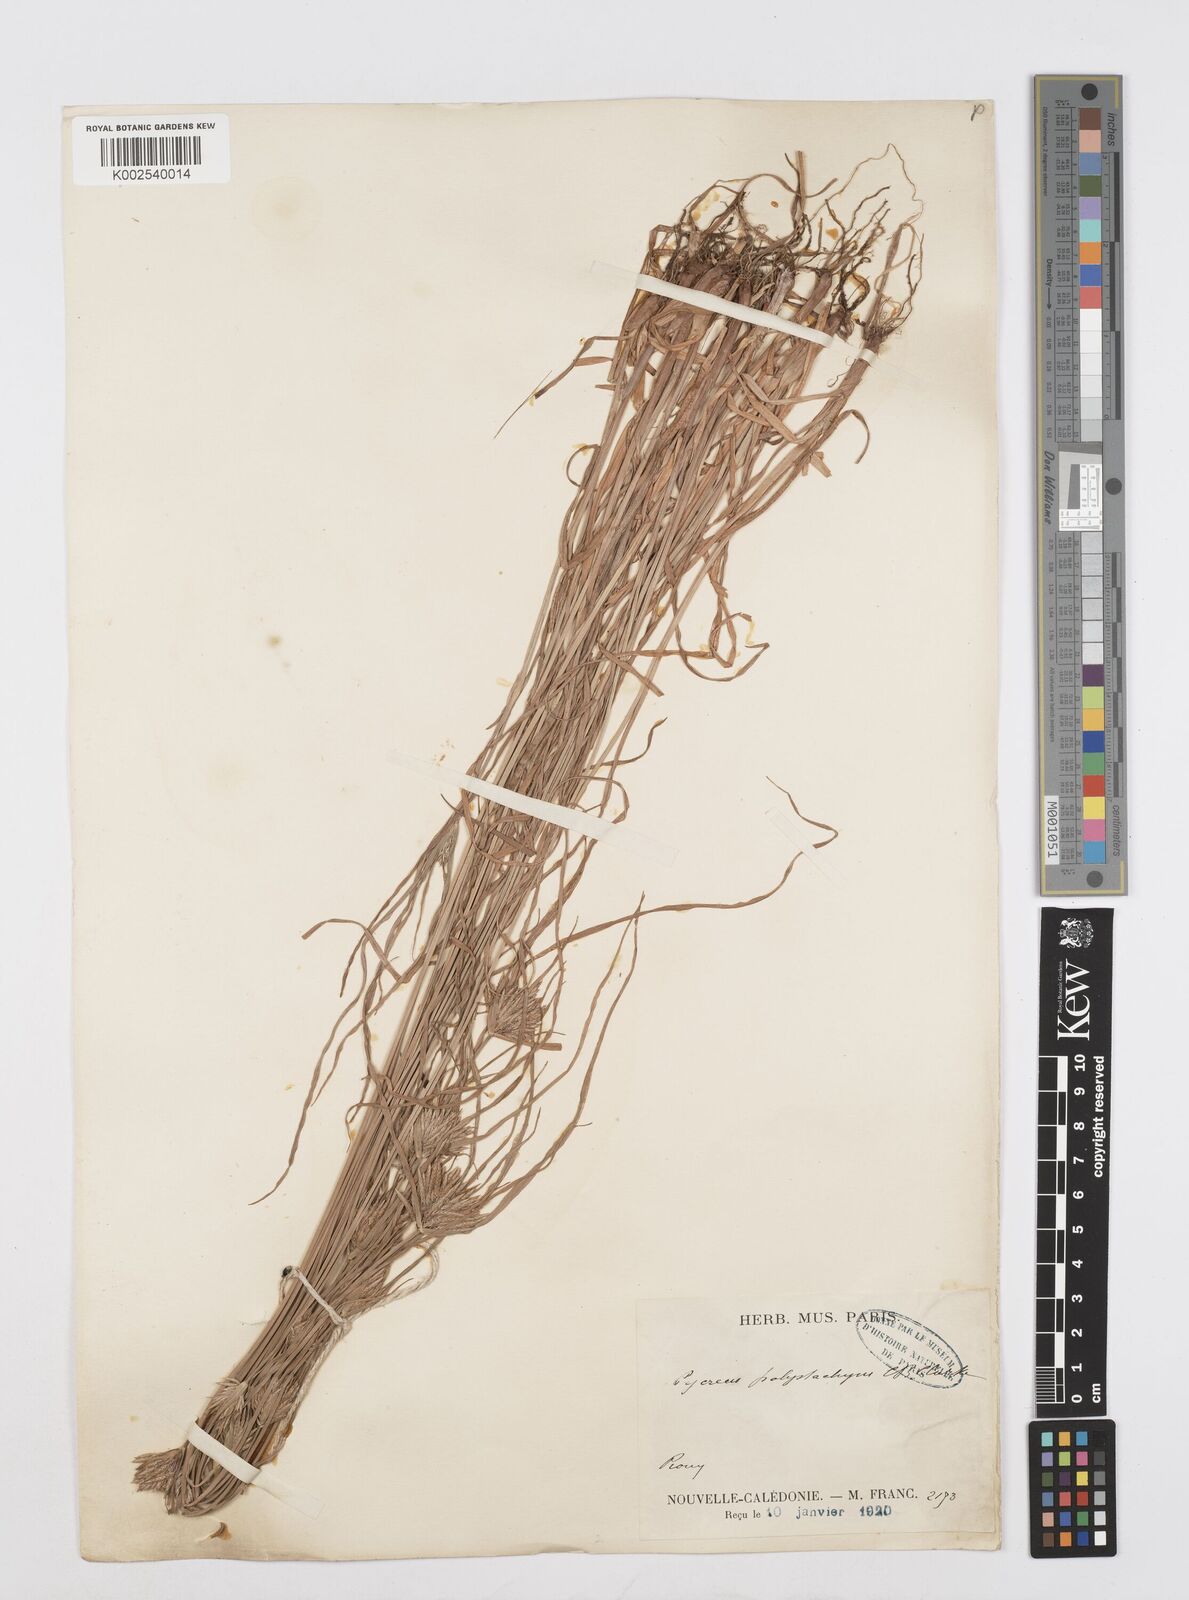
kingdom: Plantae
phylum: Tracheophyta
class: Liliopsida
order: Poales
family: Cyperaceae
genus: Cyperus
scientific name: Cyperus polystachyos
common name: Bunchy flat sedge
